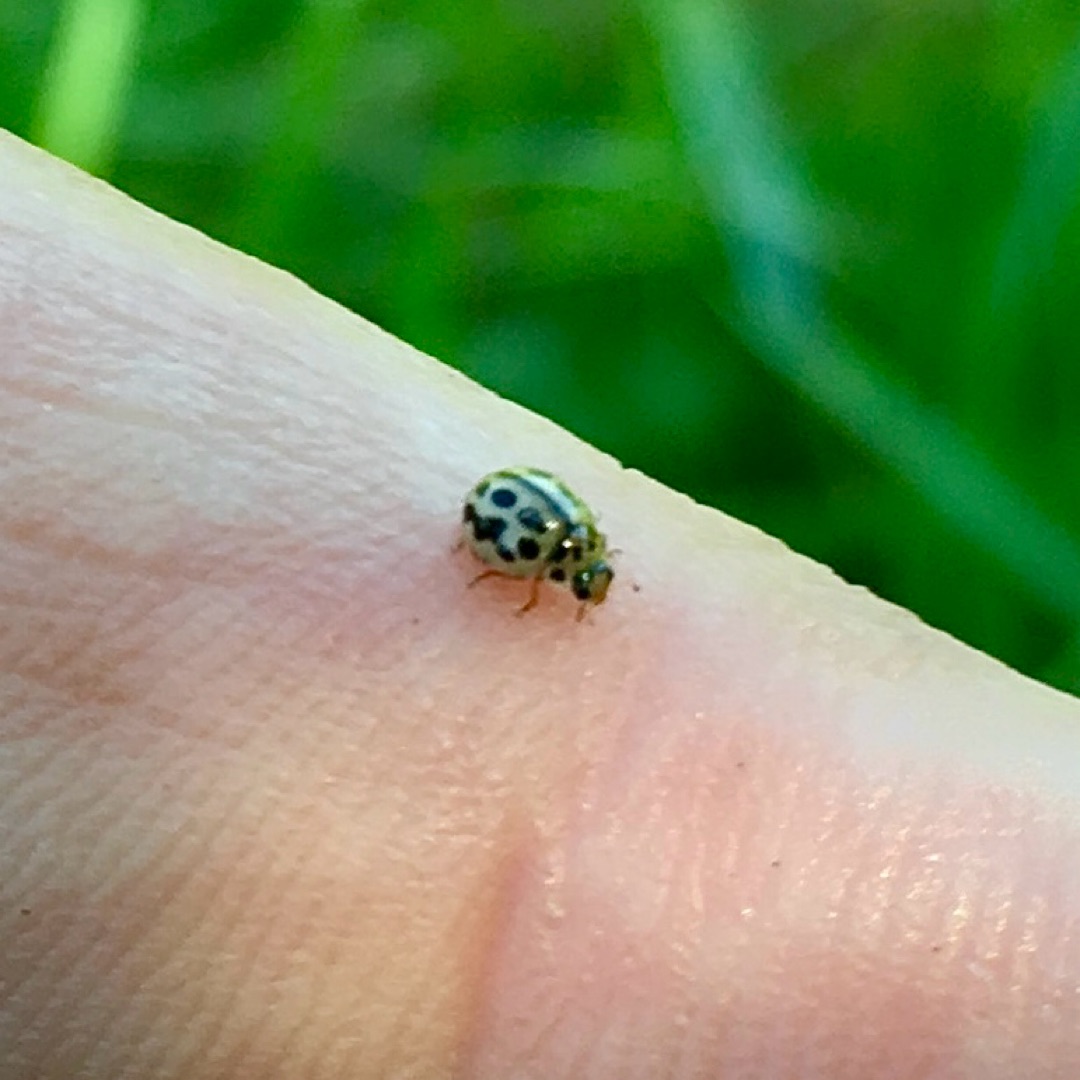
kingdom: Animalia
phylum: Arthropoda
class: Insecta
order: Coleoptera
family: Coccinellidae
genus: Tytthaspis
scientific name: Tytthaspis sedecimpunctata
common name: Sekstenprikket mariehøne
